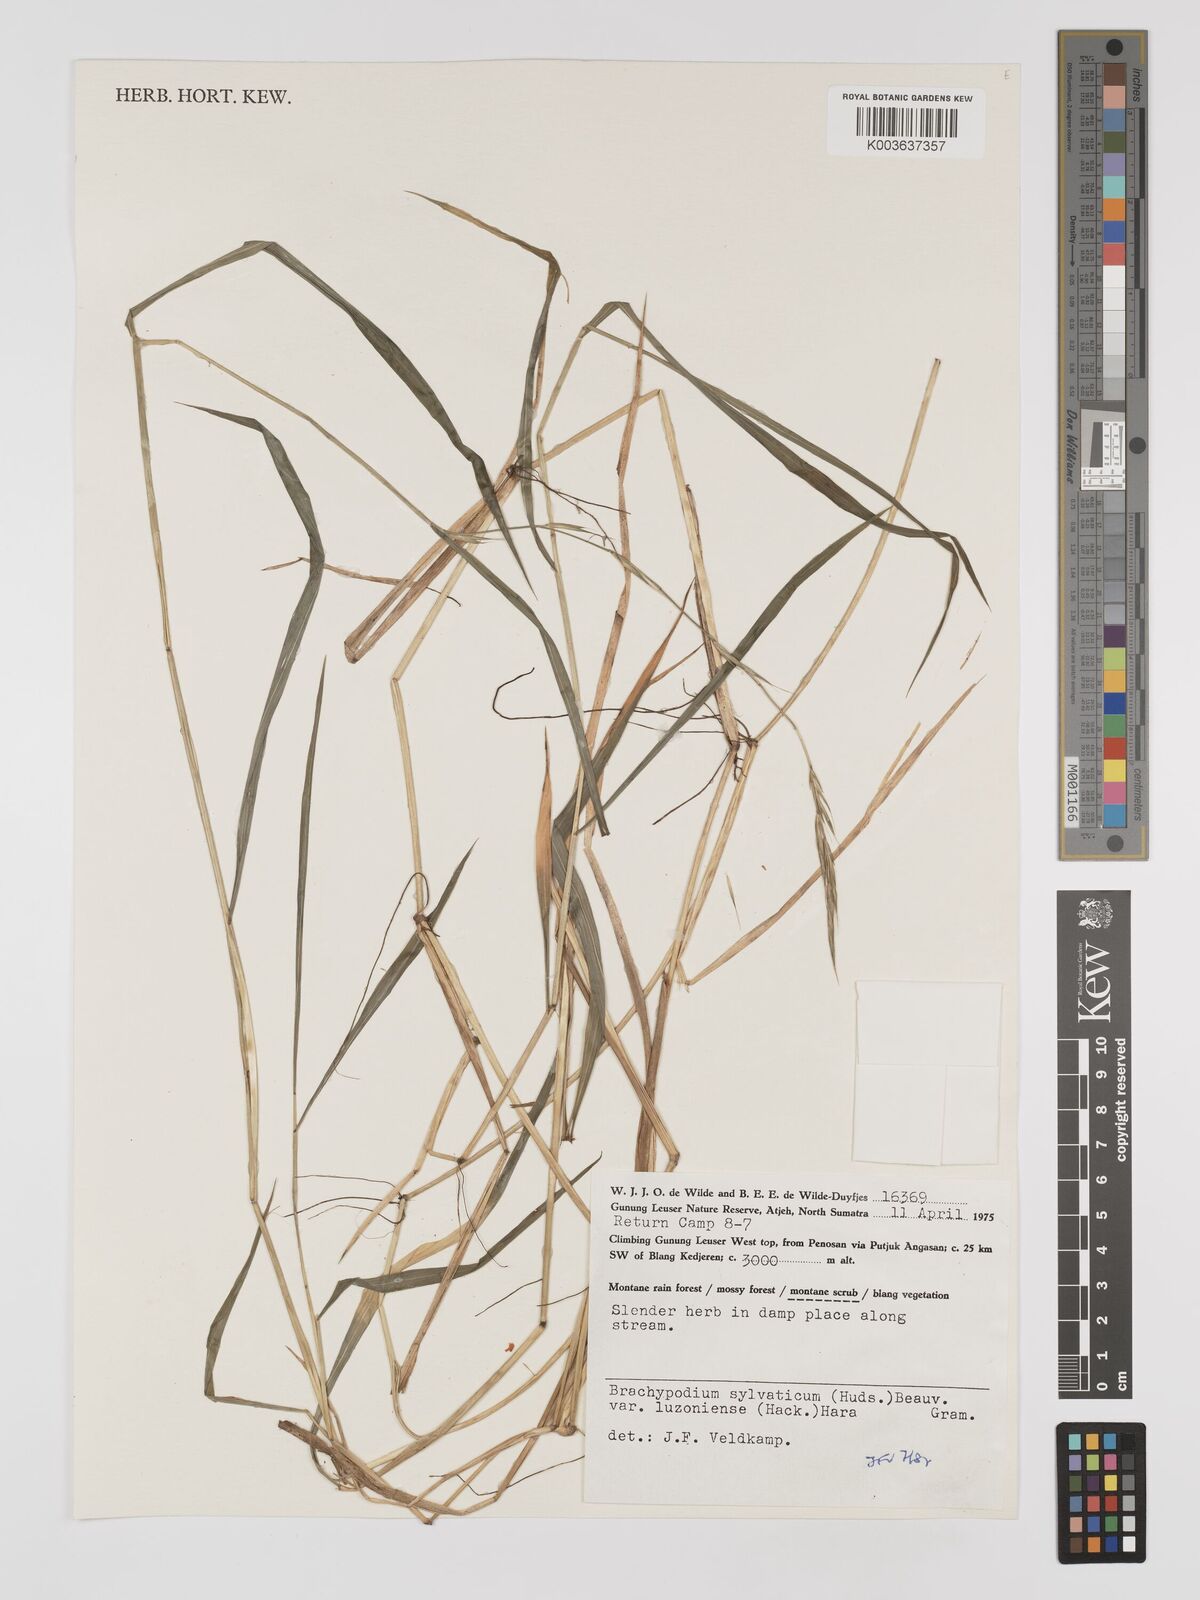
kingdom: Plantae
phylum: Tracheophyta
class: Liliopsida
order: Poales
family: Poaceae
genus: Brachypodium
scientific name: Brachypodium sylvaticum
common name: False-brome
